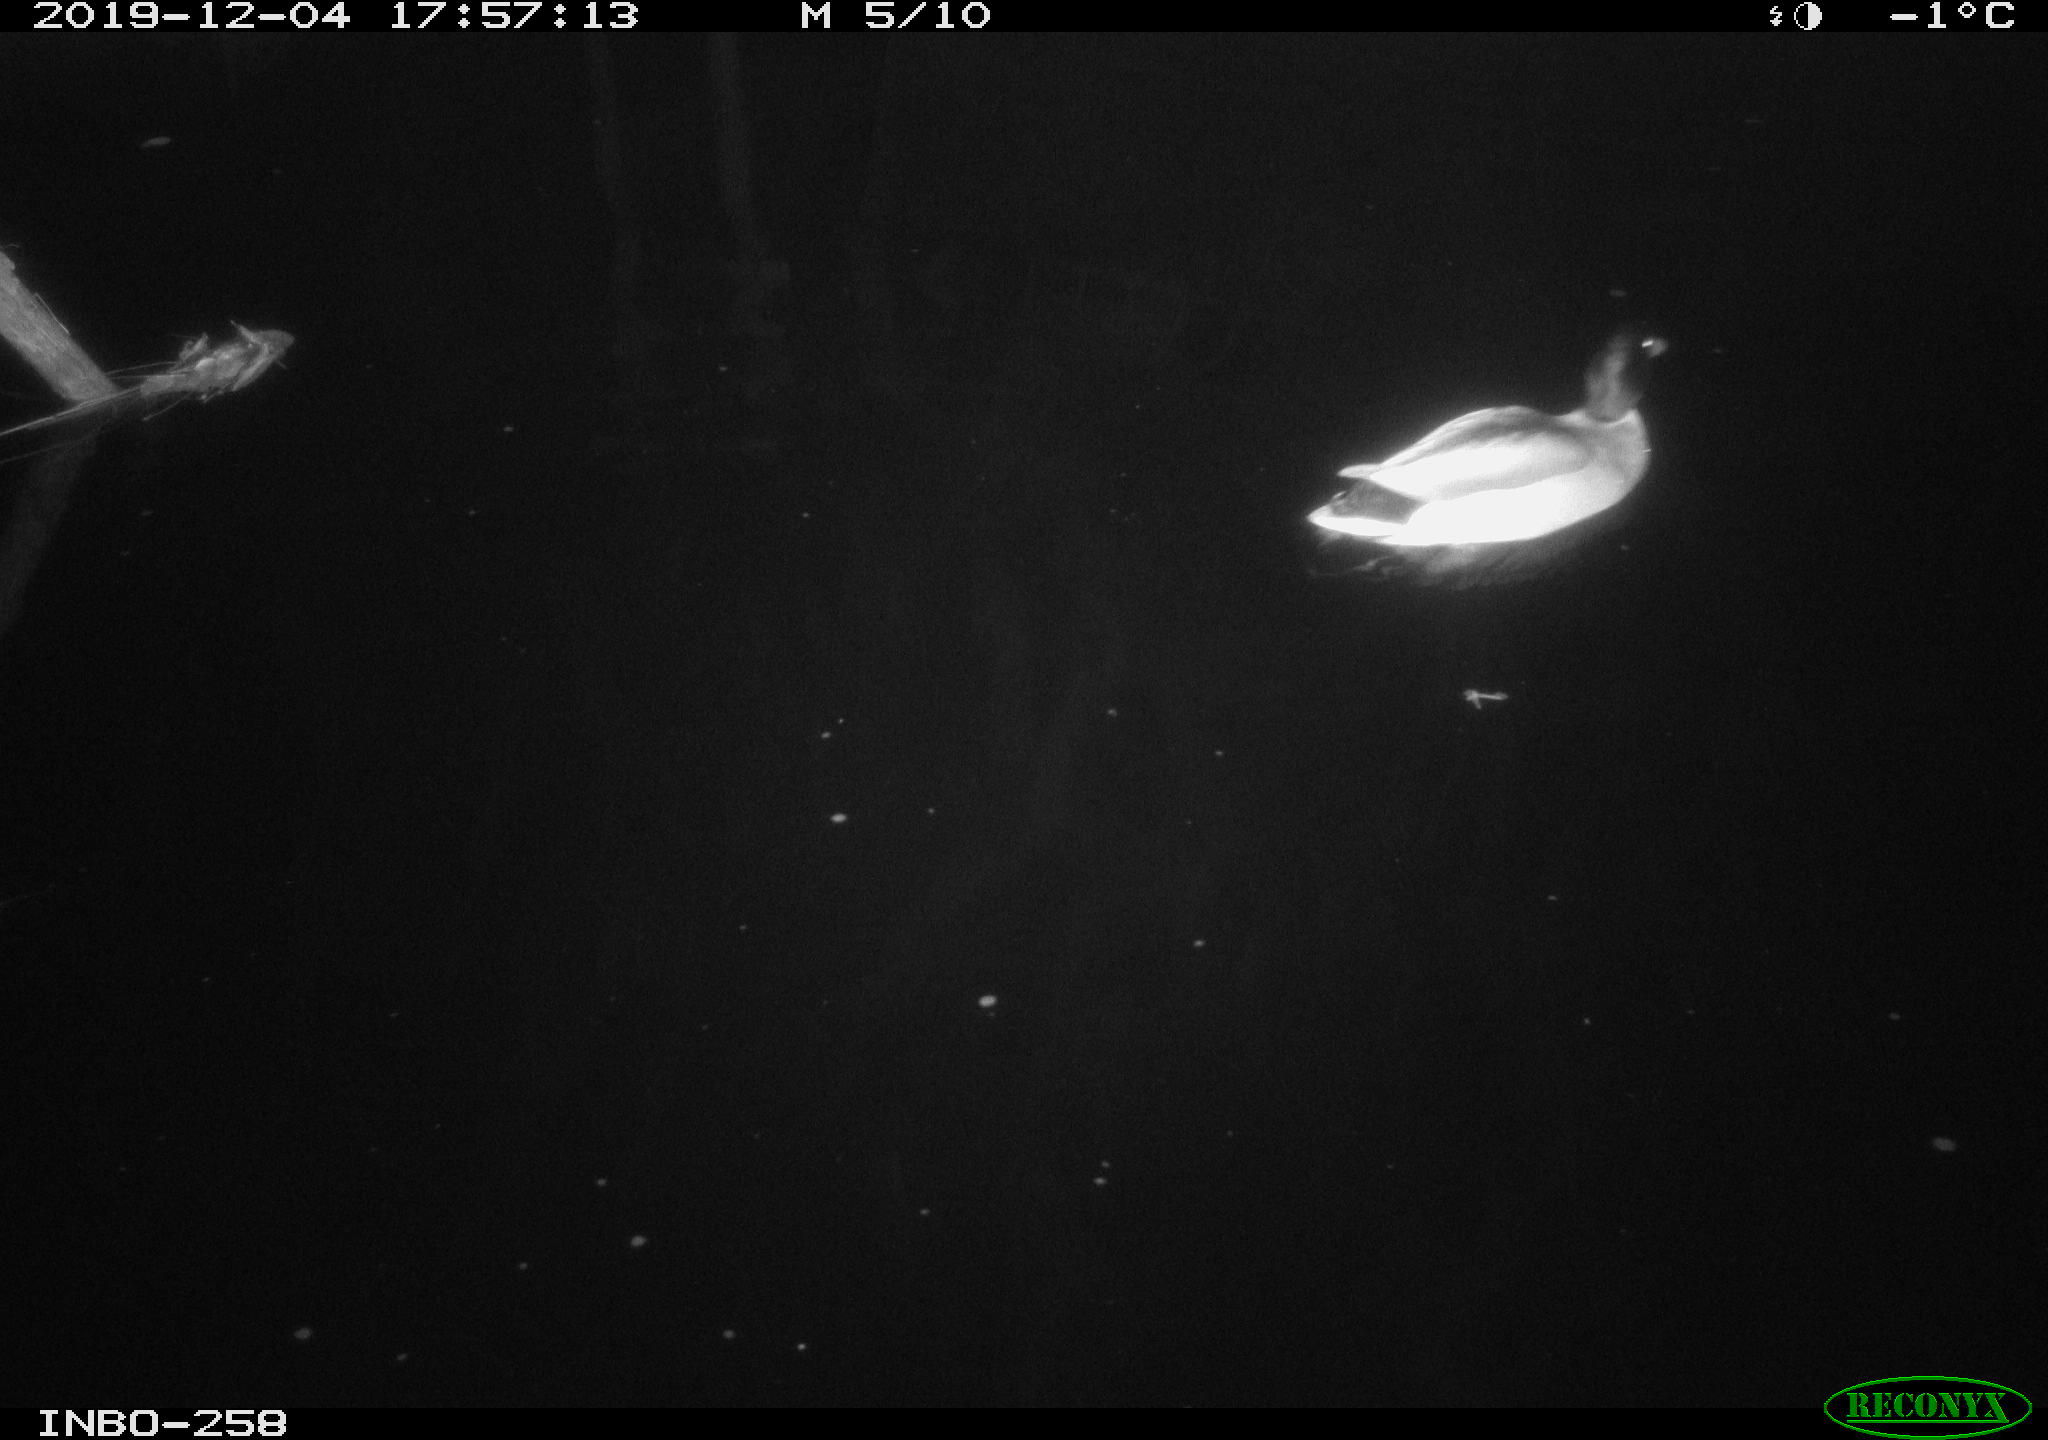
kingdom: Animalia
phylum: Chordata
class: Aves
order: Anseriformes
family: Anatidae
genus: Anas
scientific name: Anas platyrhynchos
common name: Mallard
